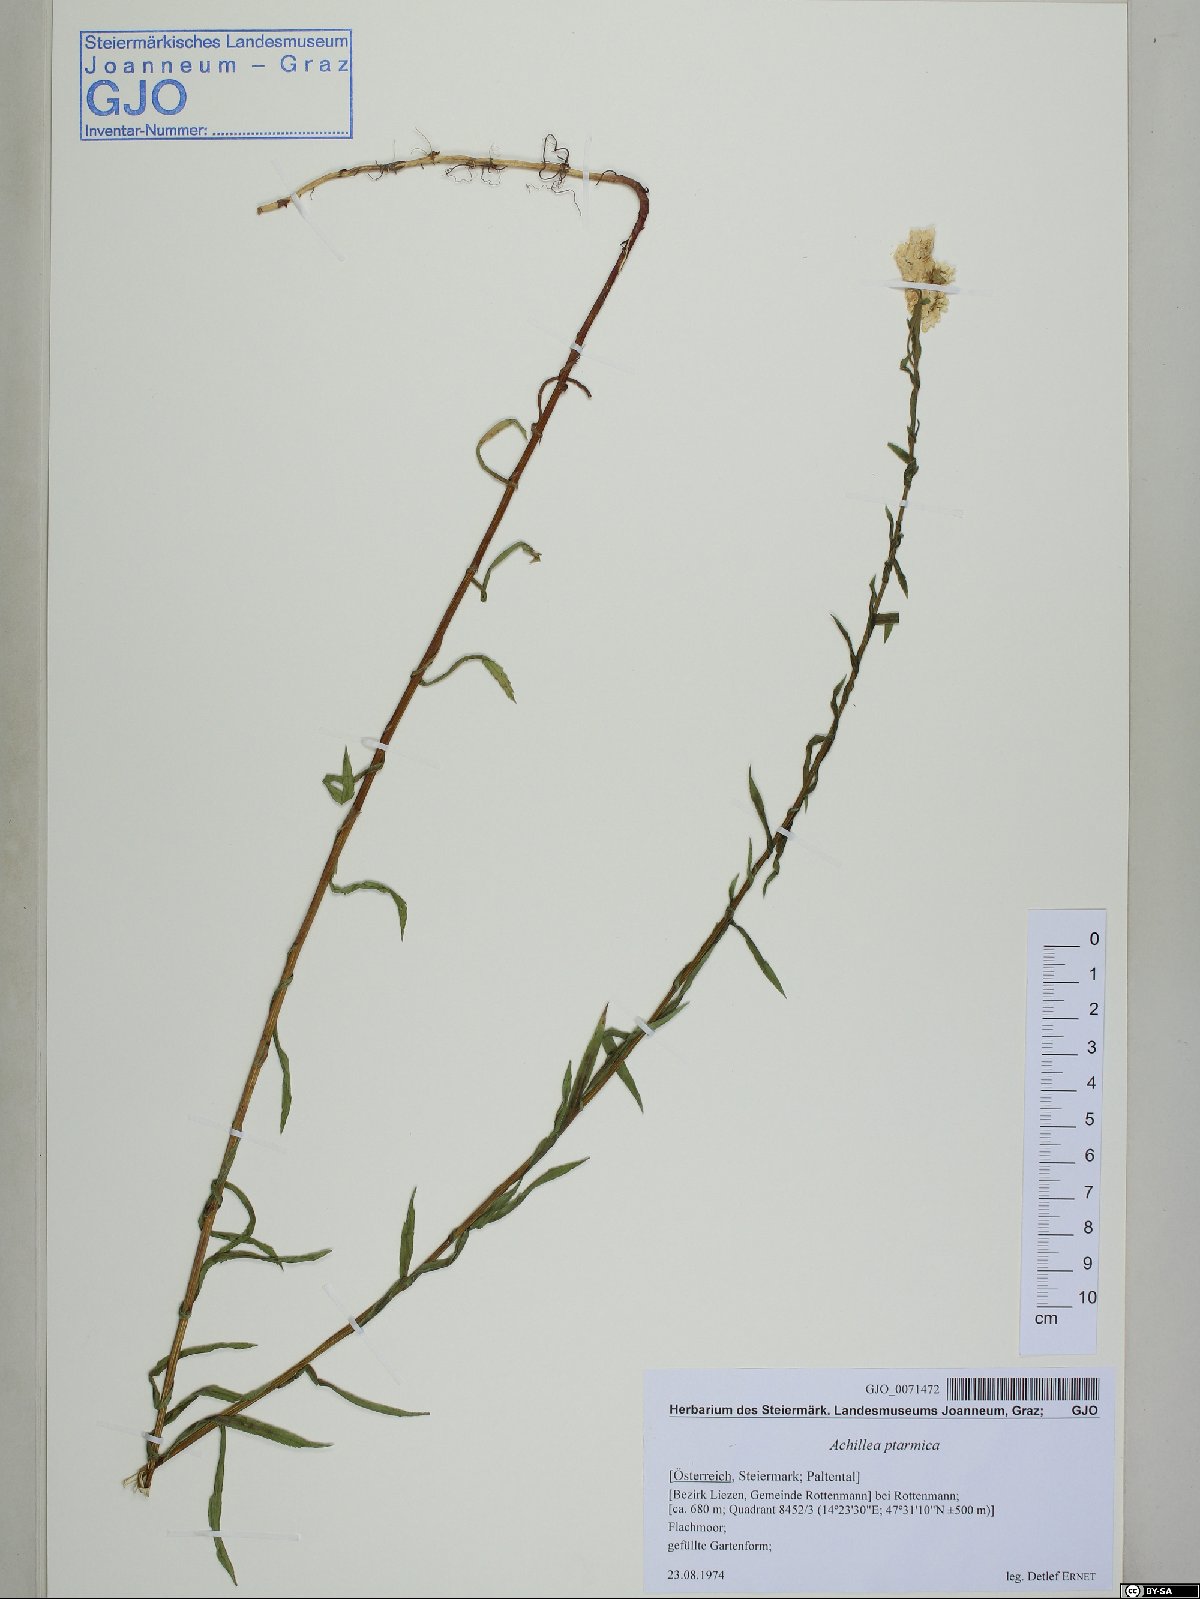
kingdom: Plantae
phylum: Tracheophyta
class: Magnoliopsida
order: Asterales
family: Asteraceae
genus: Achillea
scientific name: Achillea ptarmica
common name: Sneezeweed
